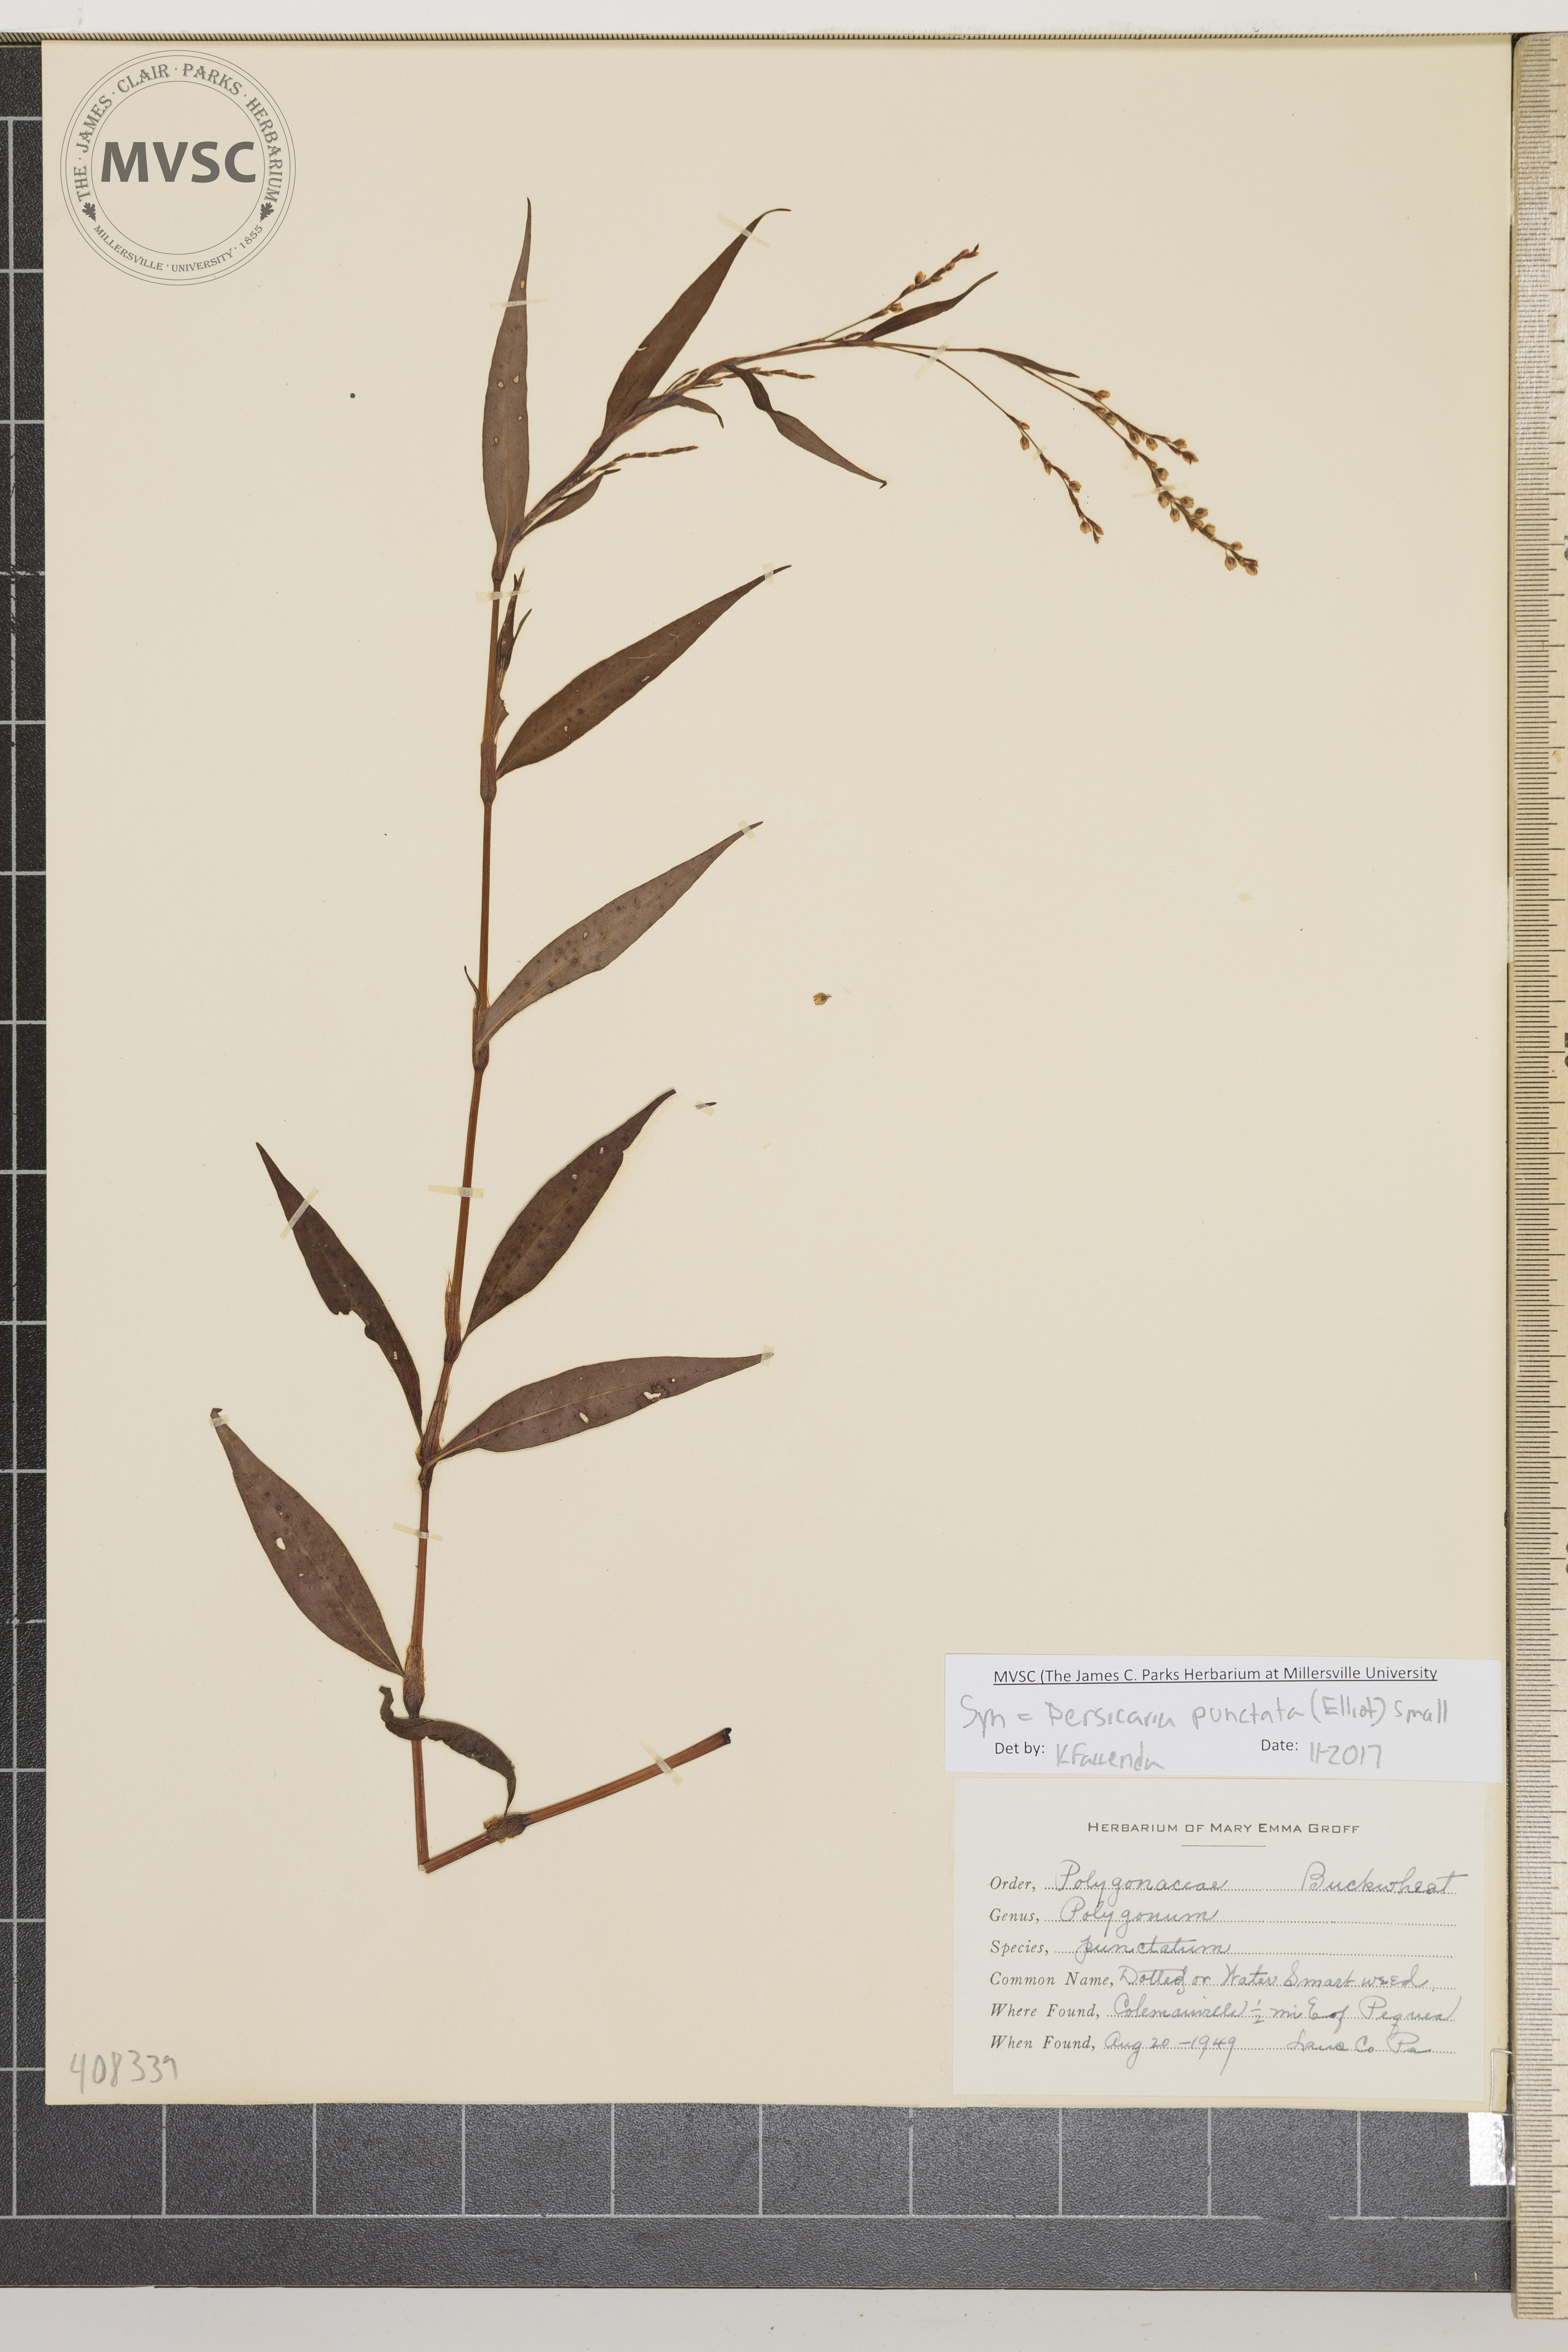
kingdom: Plantae
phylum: Tracheophyta
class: Magnoliopsida
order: Caryophyllales
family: Polygonaceae
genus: Persicaria
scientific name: Persicaria punctata
